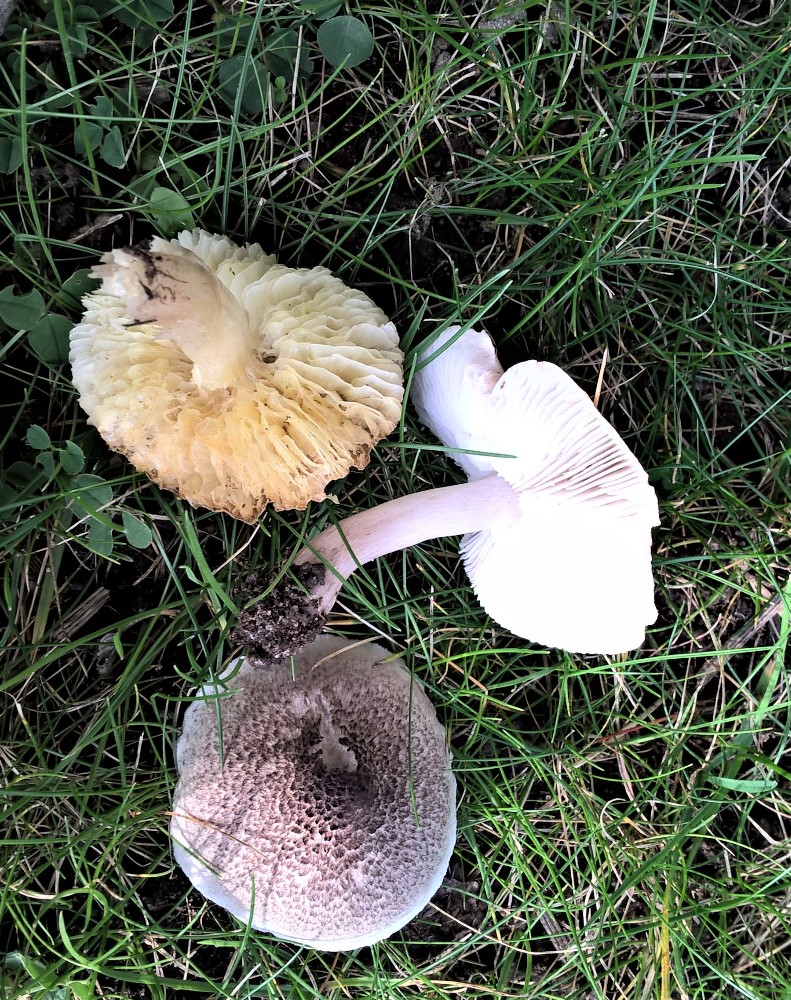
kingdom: Fungi
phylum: Basidiomycota
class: Agaricomycetes
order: Agaricales
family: Tricholomataceae
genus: Tricholoma
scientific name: Tricholoma scalpturatum
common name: gulplettet ridderhat
